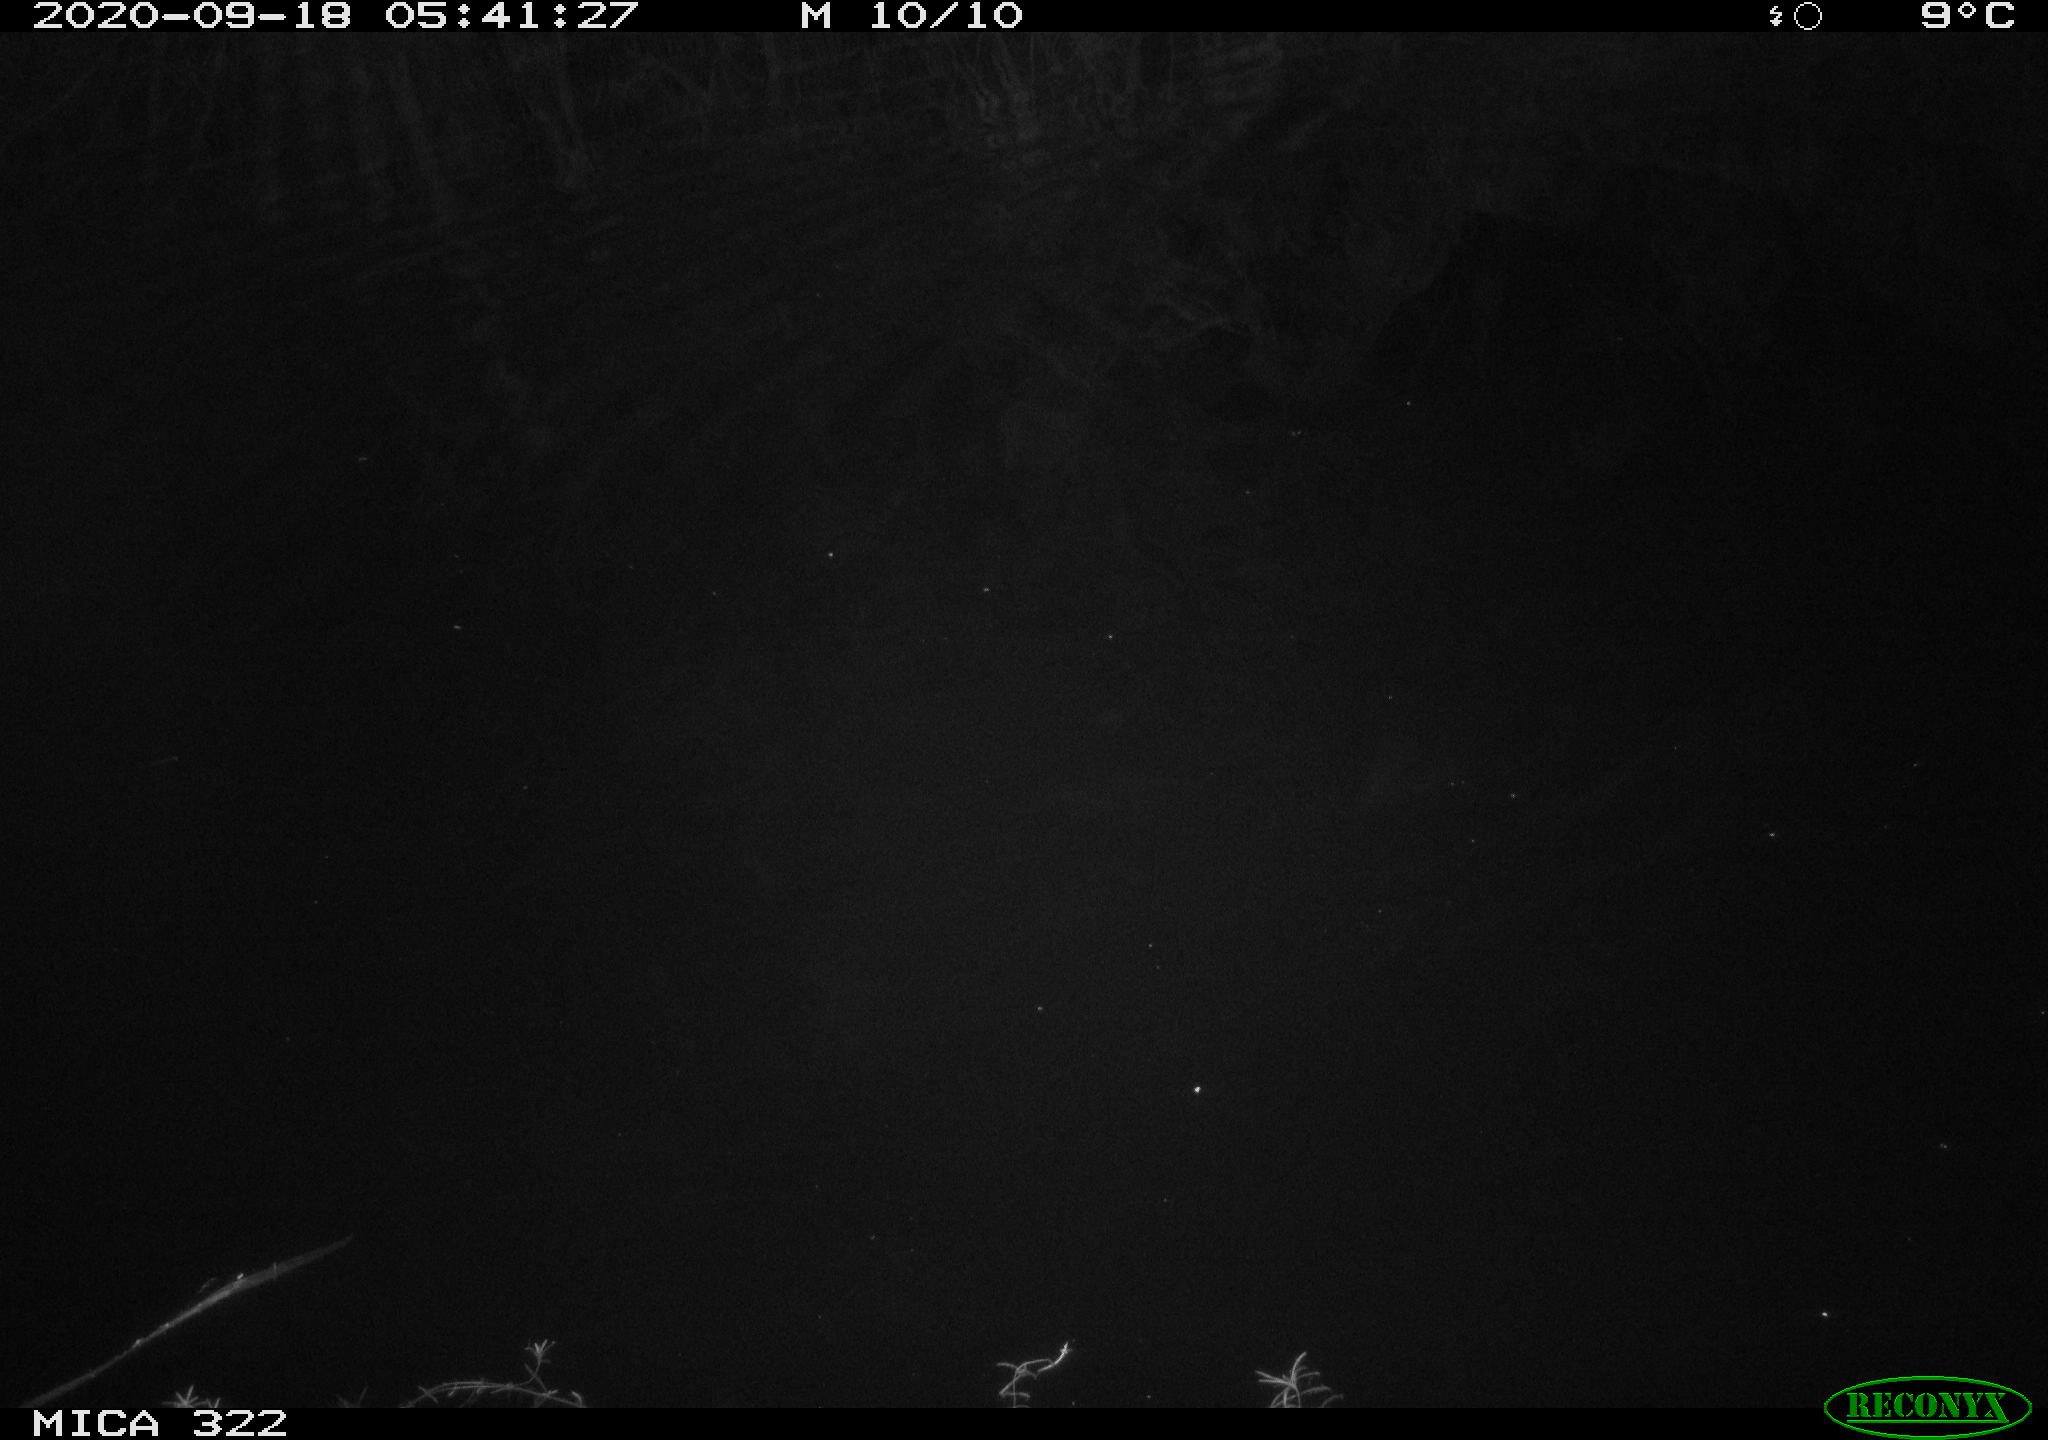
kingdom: Animalia
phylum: Chordata
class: Mammalia
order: Rodentia
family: Muridae
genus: Rattus
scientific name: Rattus norvegicus
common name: Brown rat
